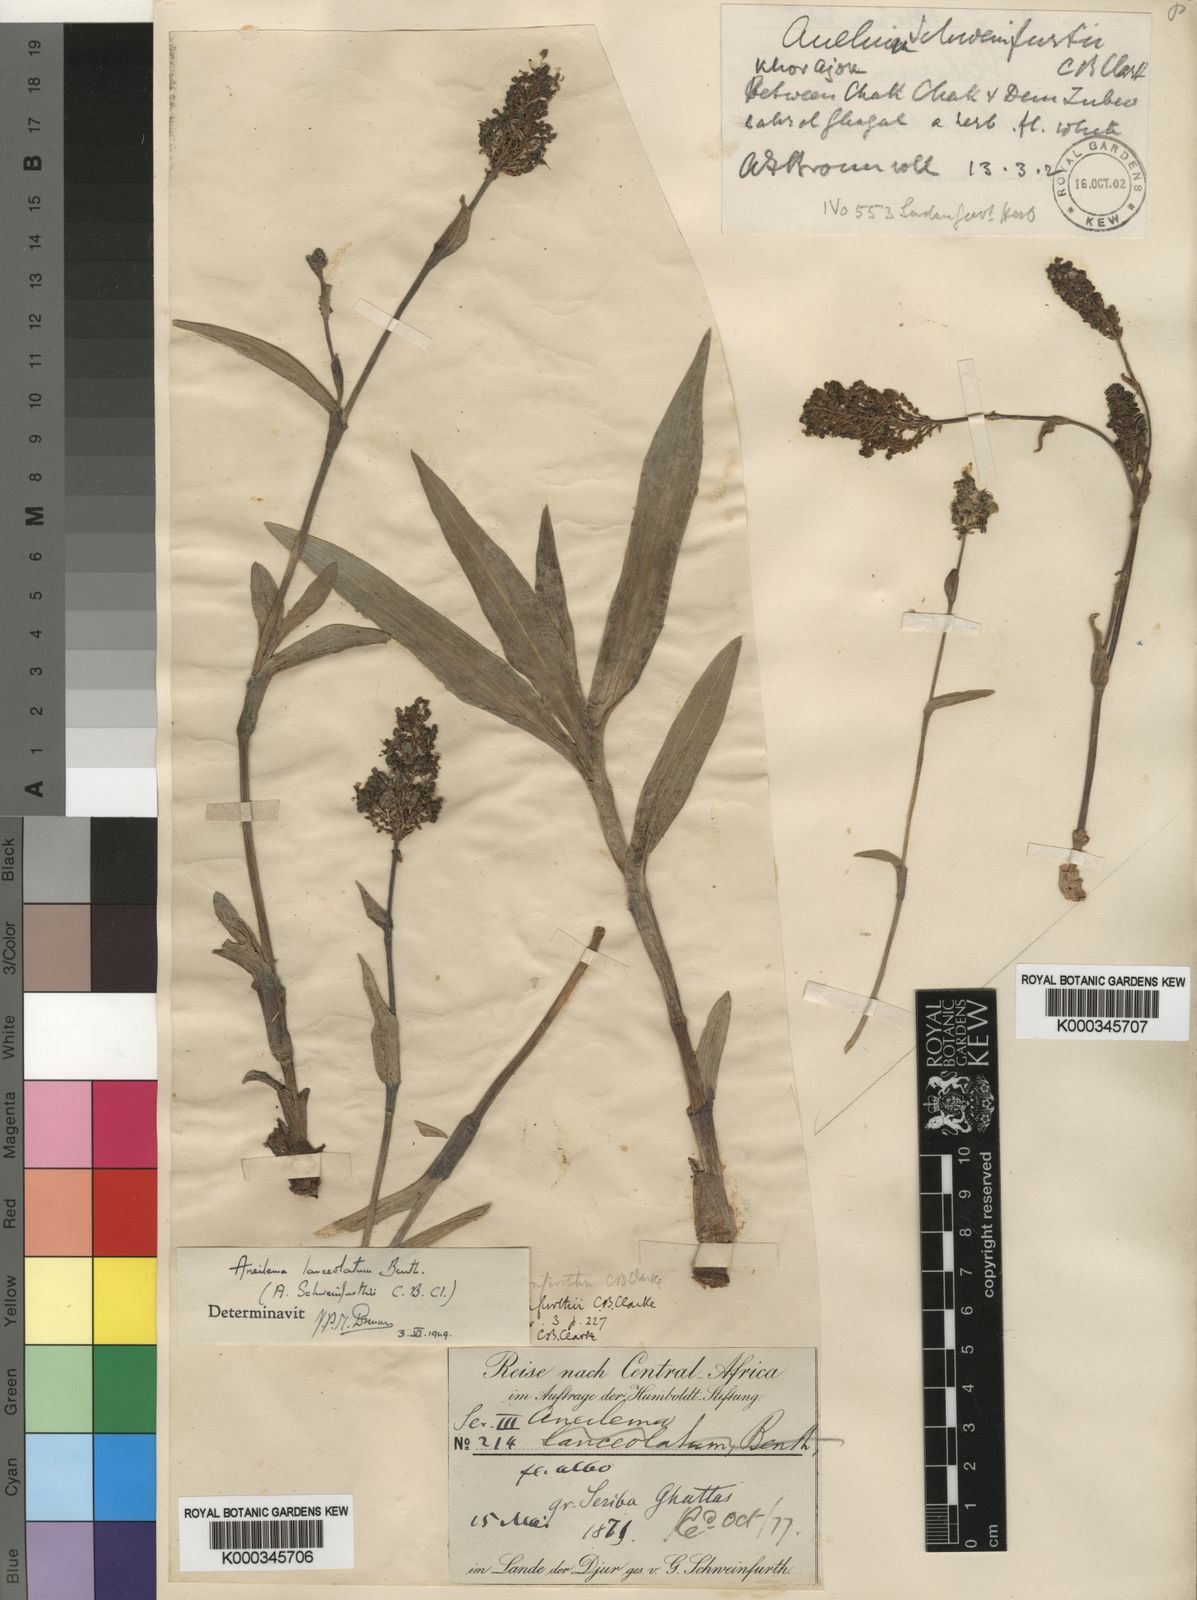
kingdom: Plantae
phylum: Tracheophyta
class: Liliopsida
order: Commelinales
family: Commelinaceae
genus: Aneilema
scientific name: Aneilema lanceolatum
